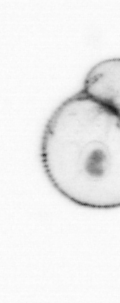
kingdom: Chromista
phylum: Myzozoa
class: Dinophyceae
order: Noctilucales
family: Noctilucaceae
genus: Noctiluca
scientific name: Noctiluca scintillans
